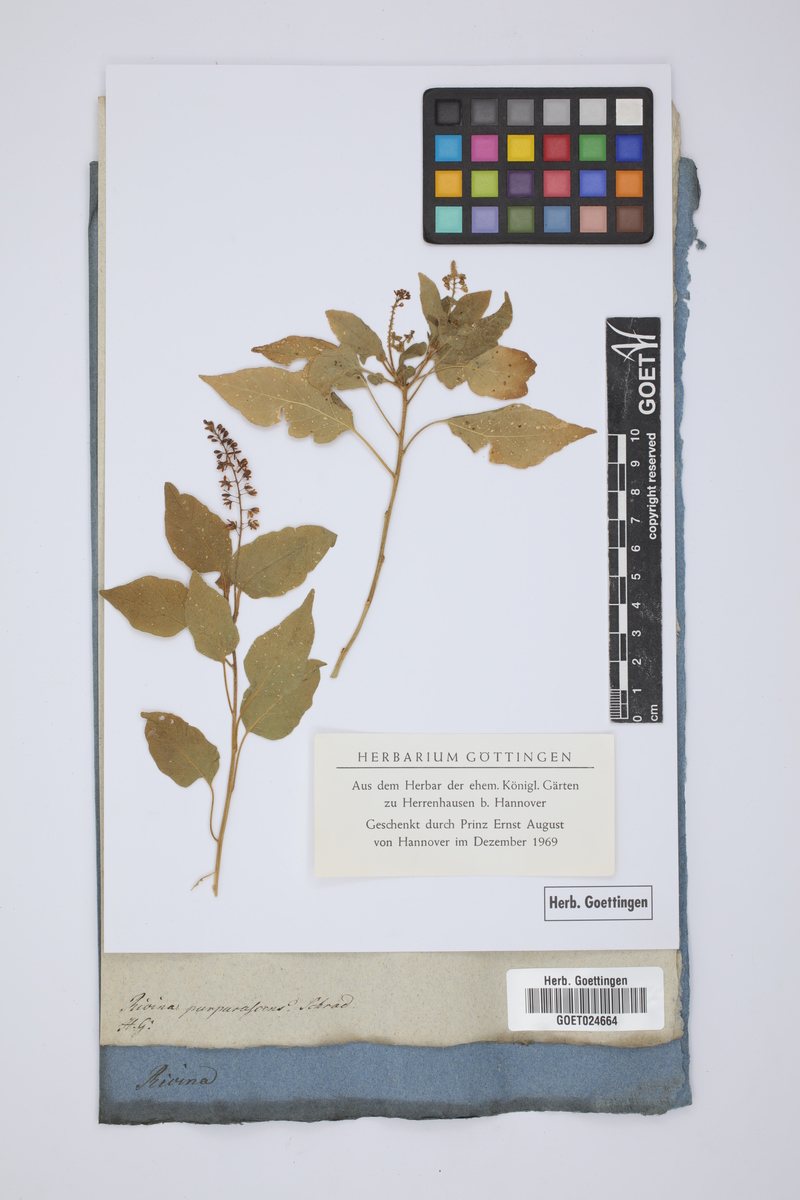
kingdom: Plantae
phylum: Tracheophyta
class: Magnoliopsida
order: Caryophyllales
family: Phytolaccaceae
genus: Rivina
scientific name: Rivina humilis
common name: Rougeplant
